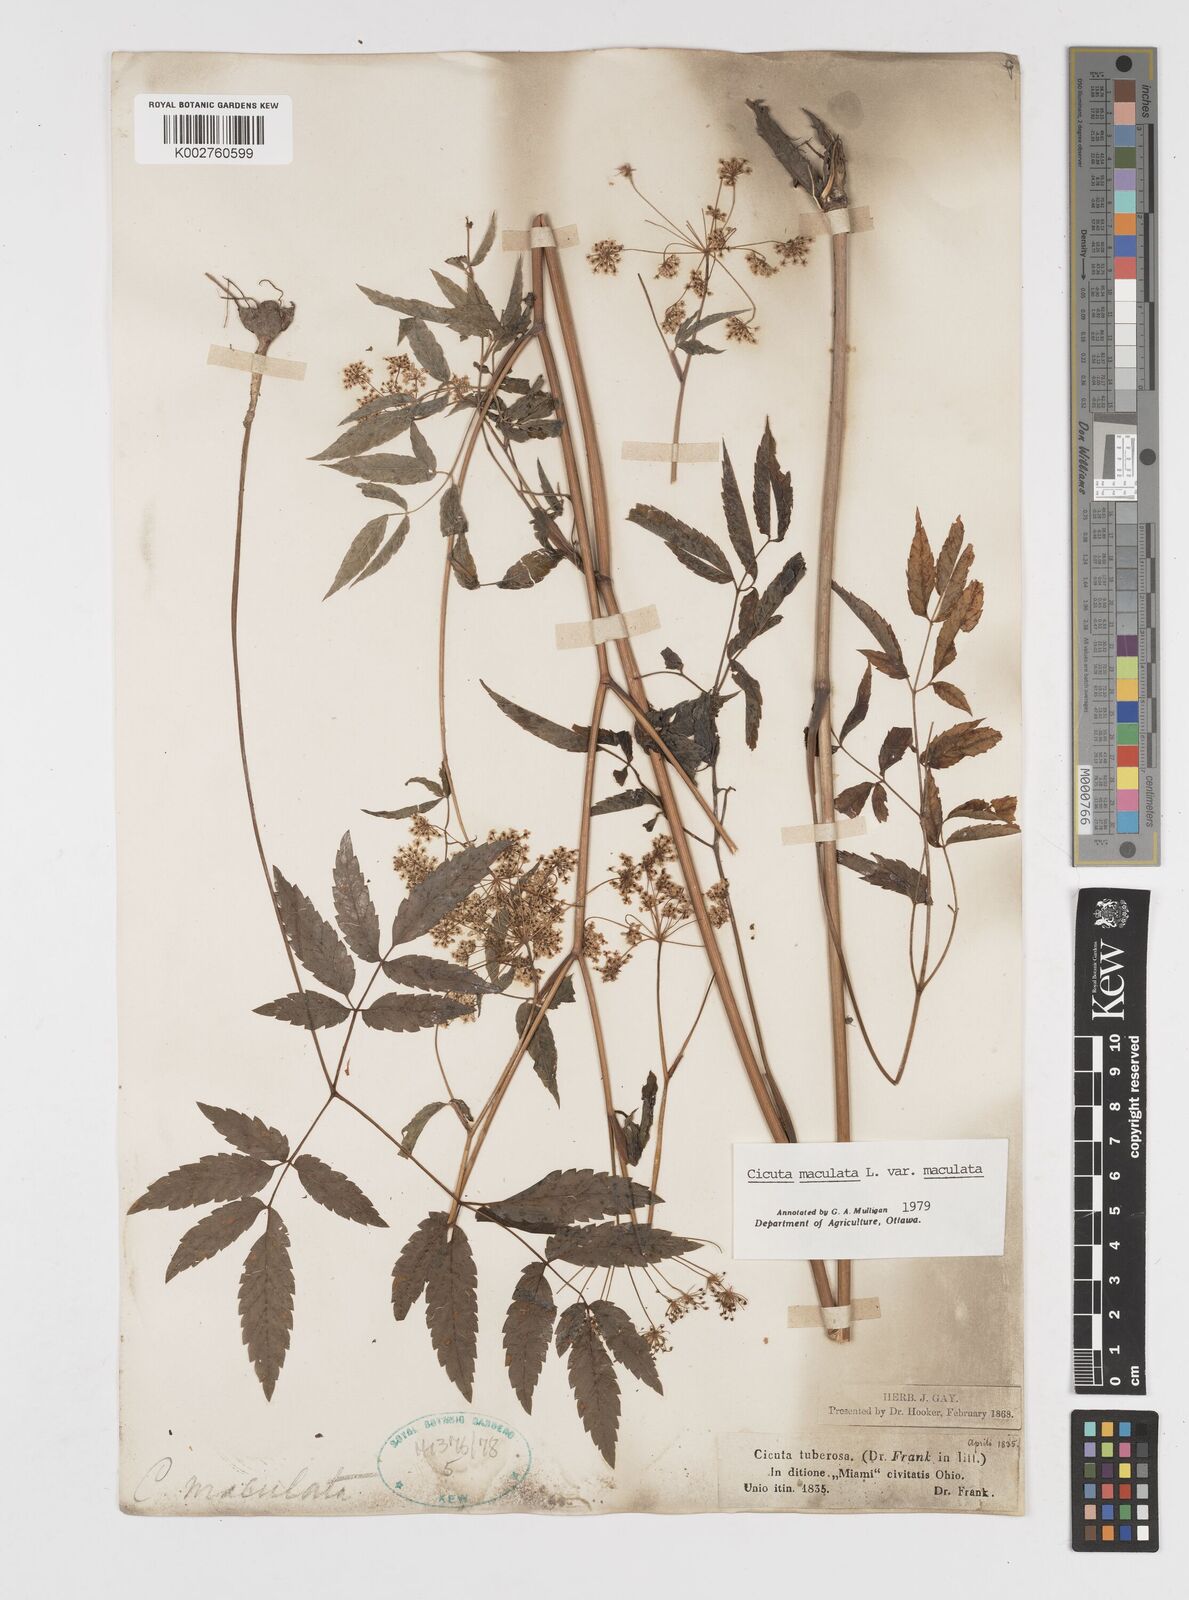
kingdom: Plantae
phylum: Tracheophyta
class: Magnoliopsida
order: Apiales
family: Apiaceae
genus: Cicuta
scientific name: Cicuta maculata
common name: Spotted cowbane
